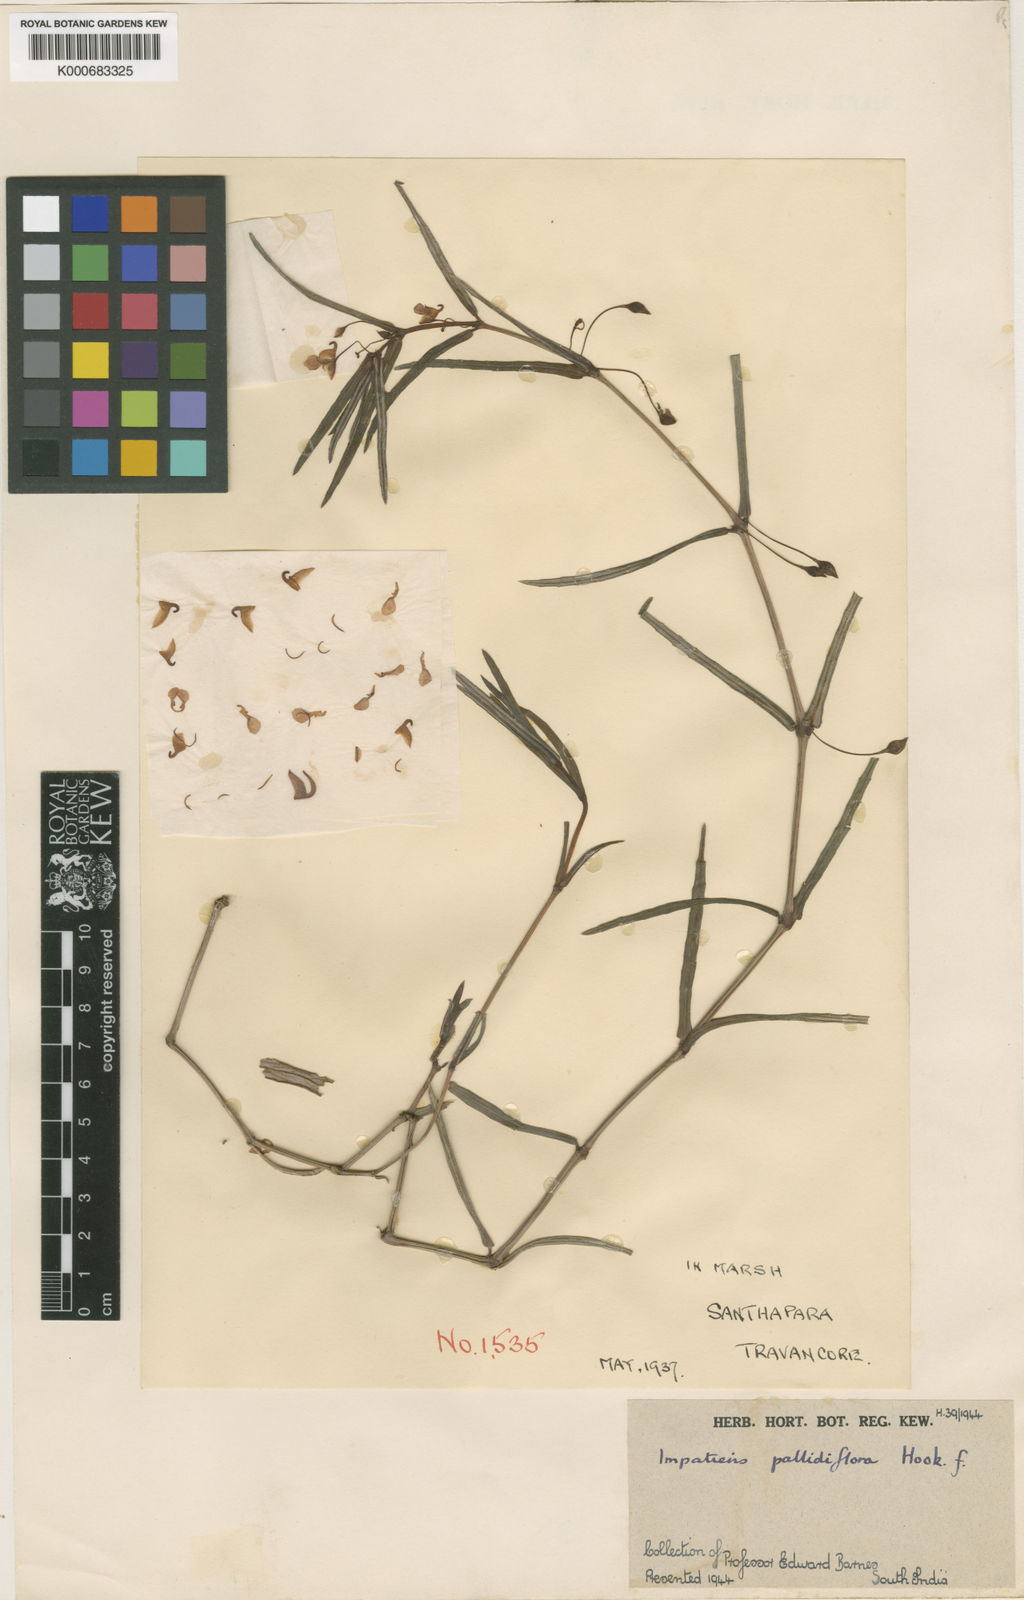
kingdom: Plantae
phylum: Tracheophyta
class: Magnoliopsida
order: Ericales
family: Balsaminaceae
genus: Impatiens
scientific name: Impatiens pallidiflora
